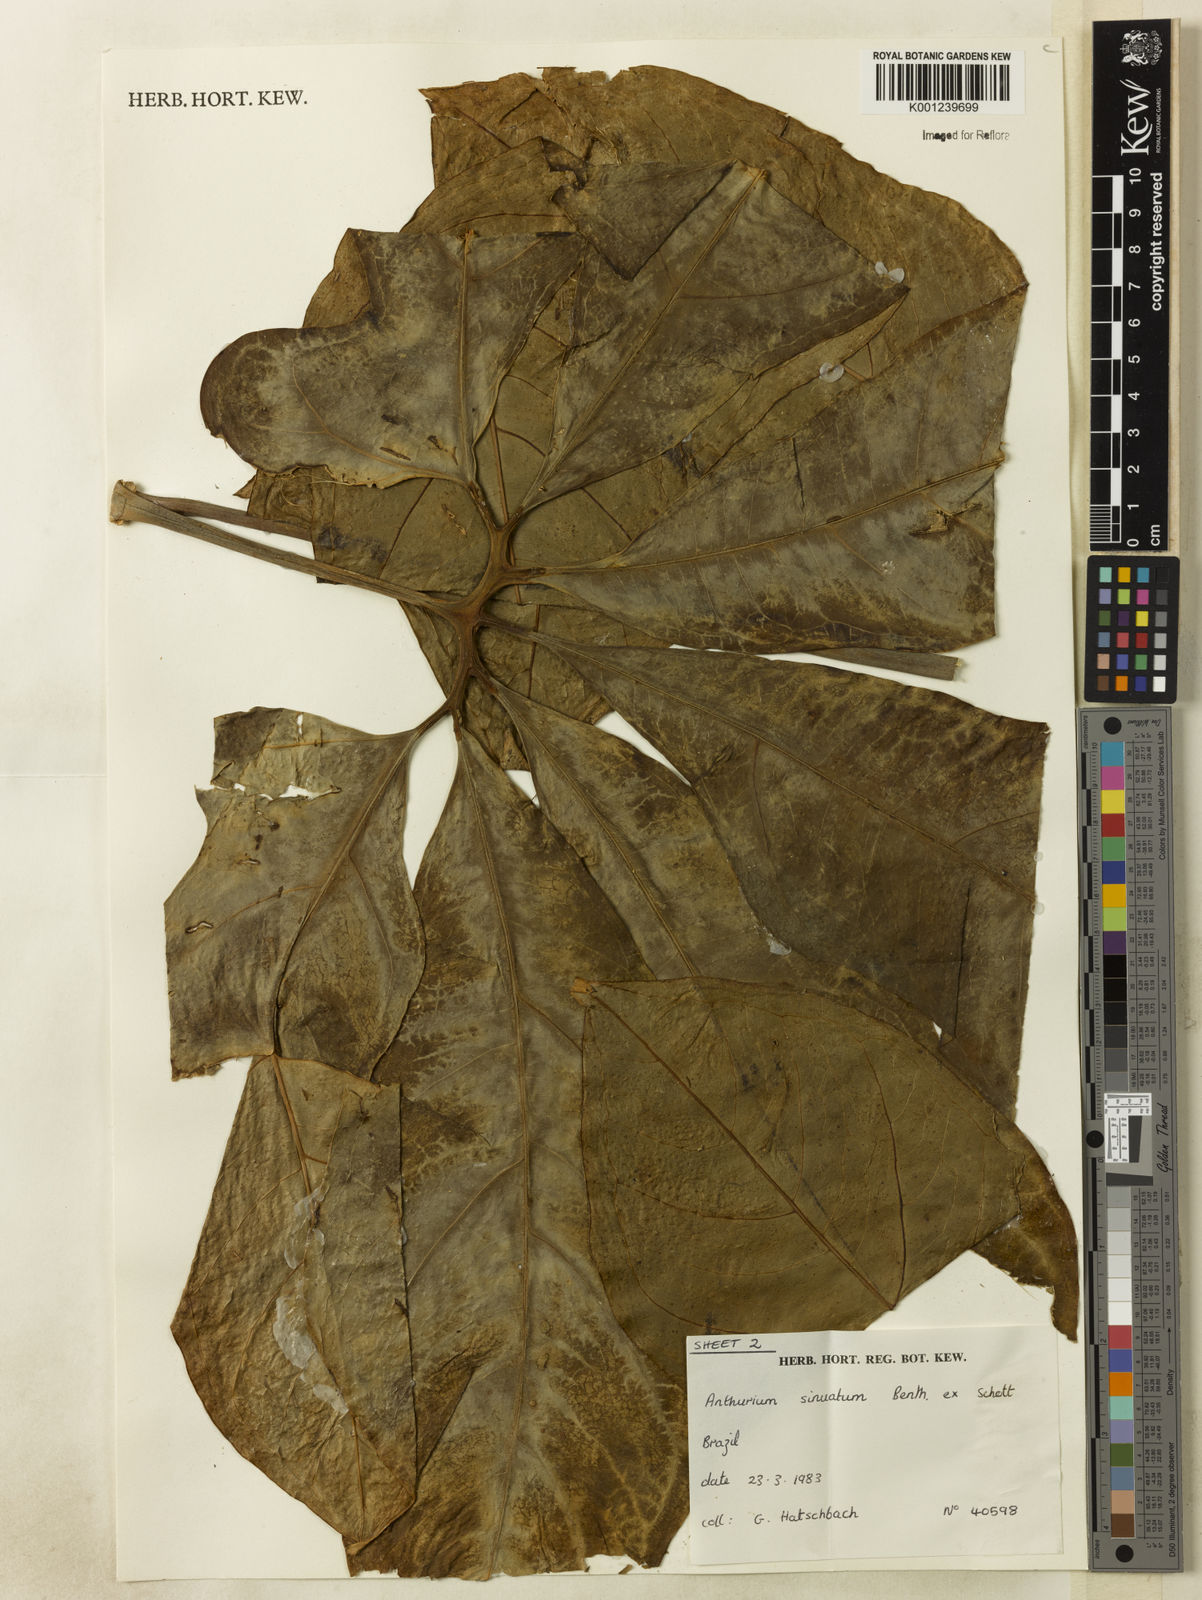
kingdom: Plantae
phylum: Tracheophyta
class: Liliopsida
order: Alismatales
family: Araceae
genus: Anthurium
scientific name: Anthurium sinuatum
